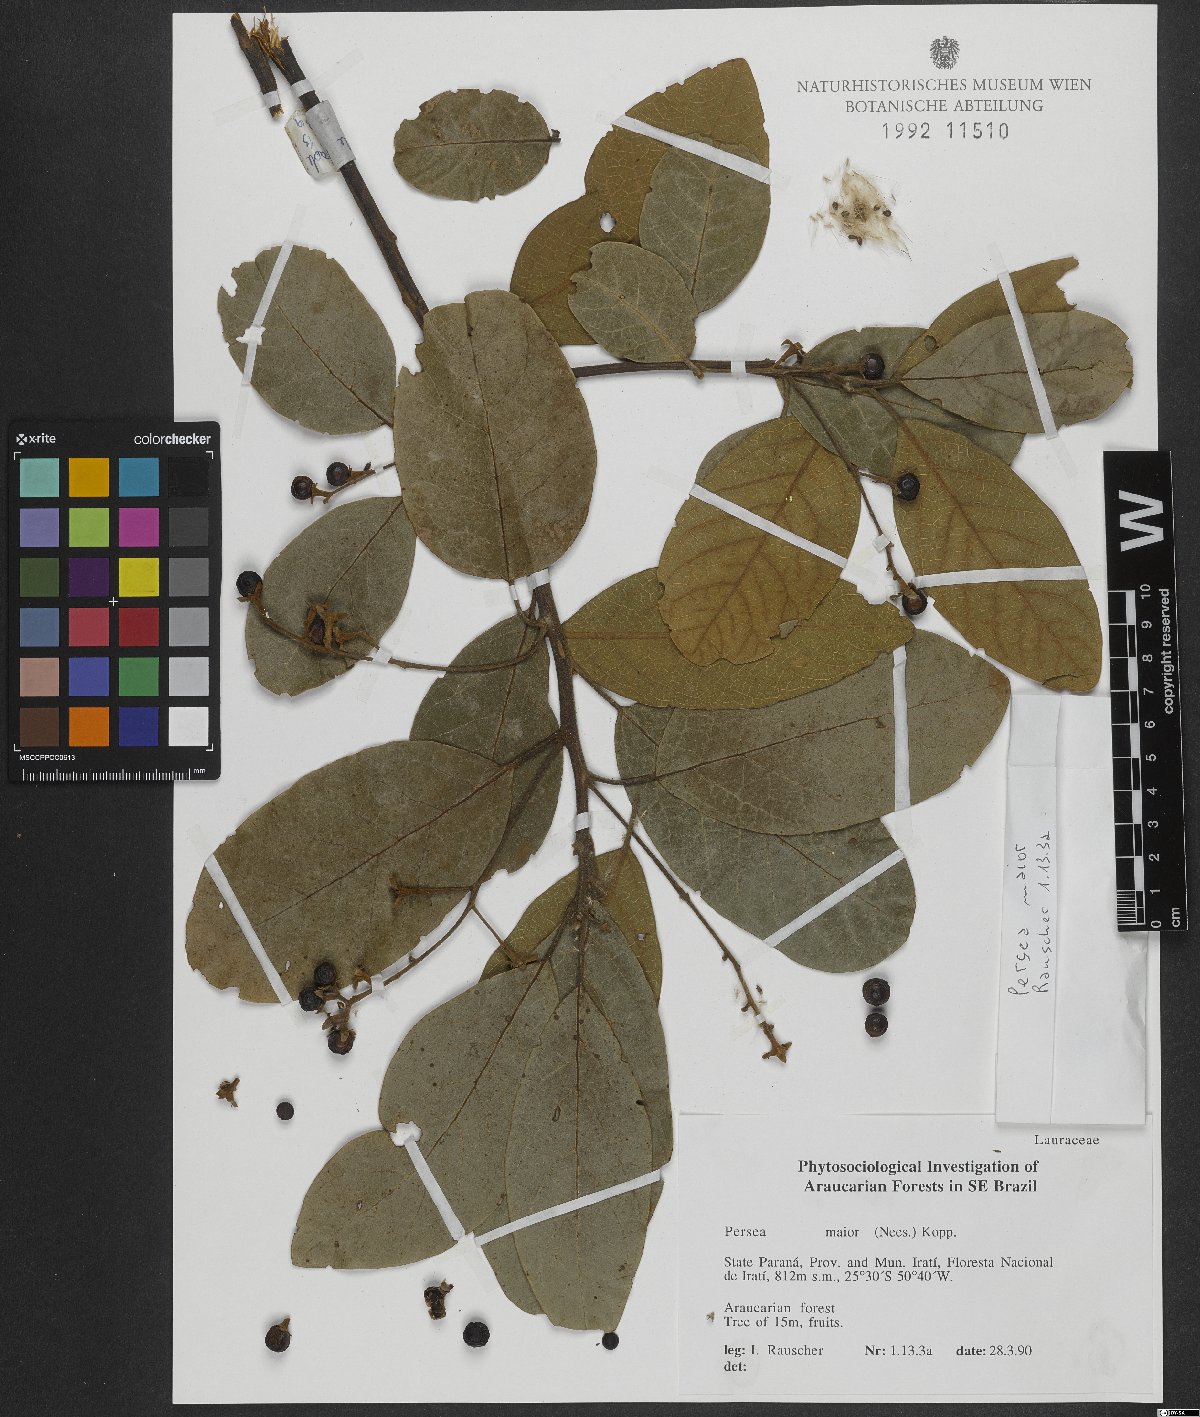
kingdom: Plantae
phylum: Tracheophyta
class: Magnoliopsida
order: Laurales
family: Lauraceae
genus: Persea
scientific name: Persea major
